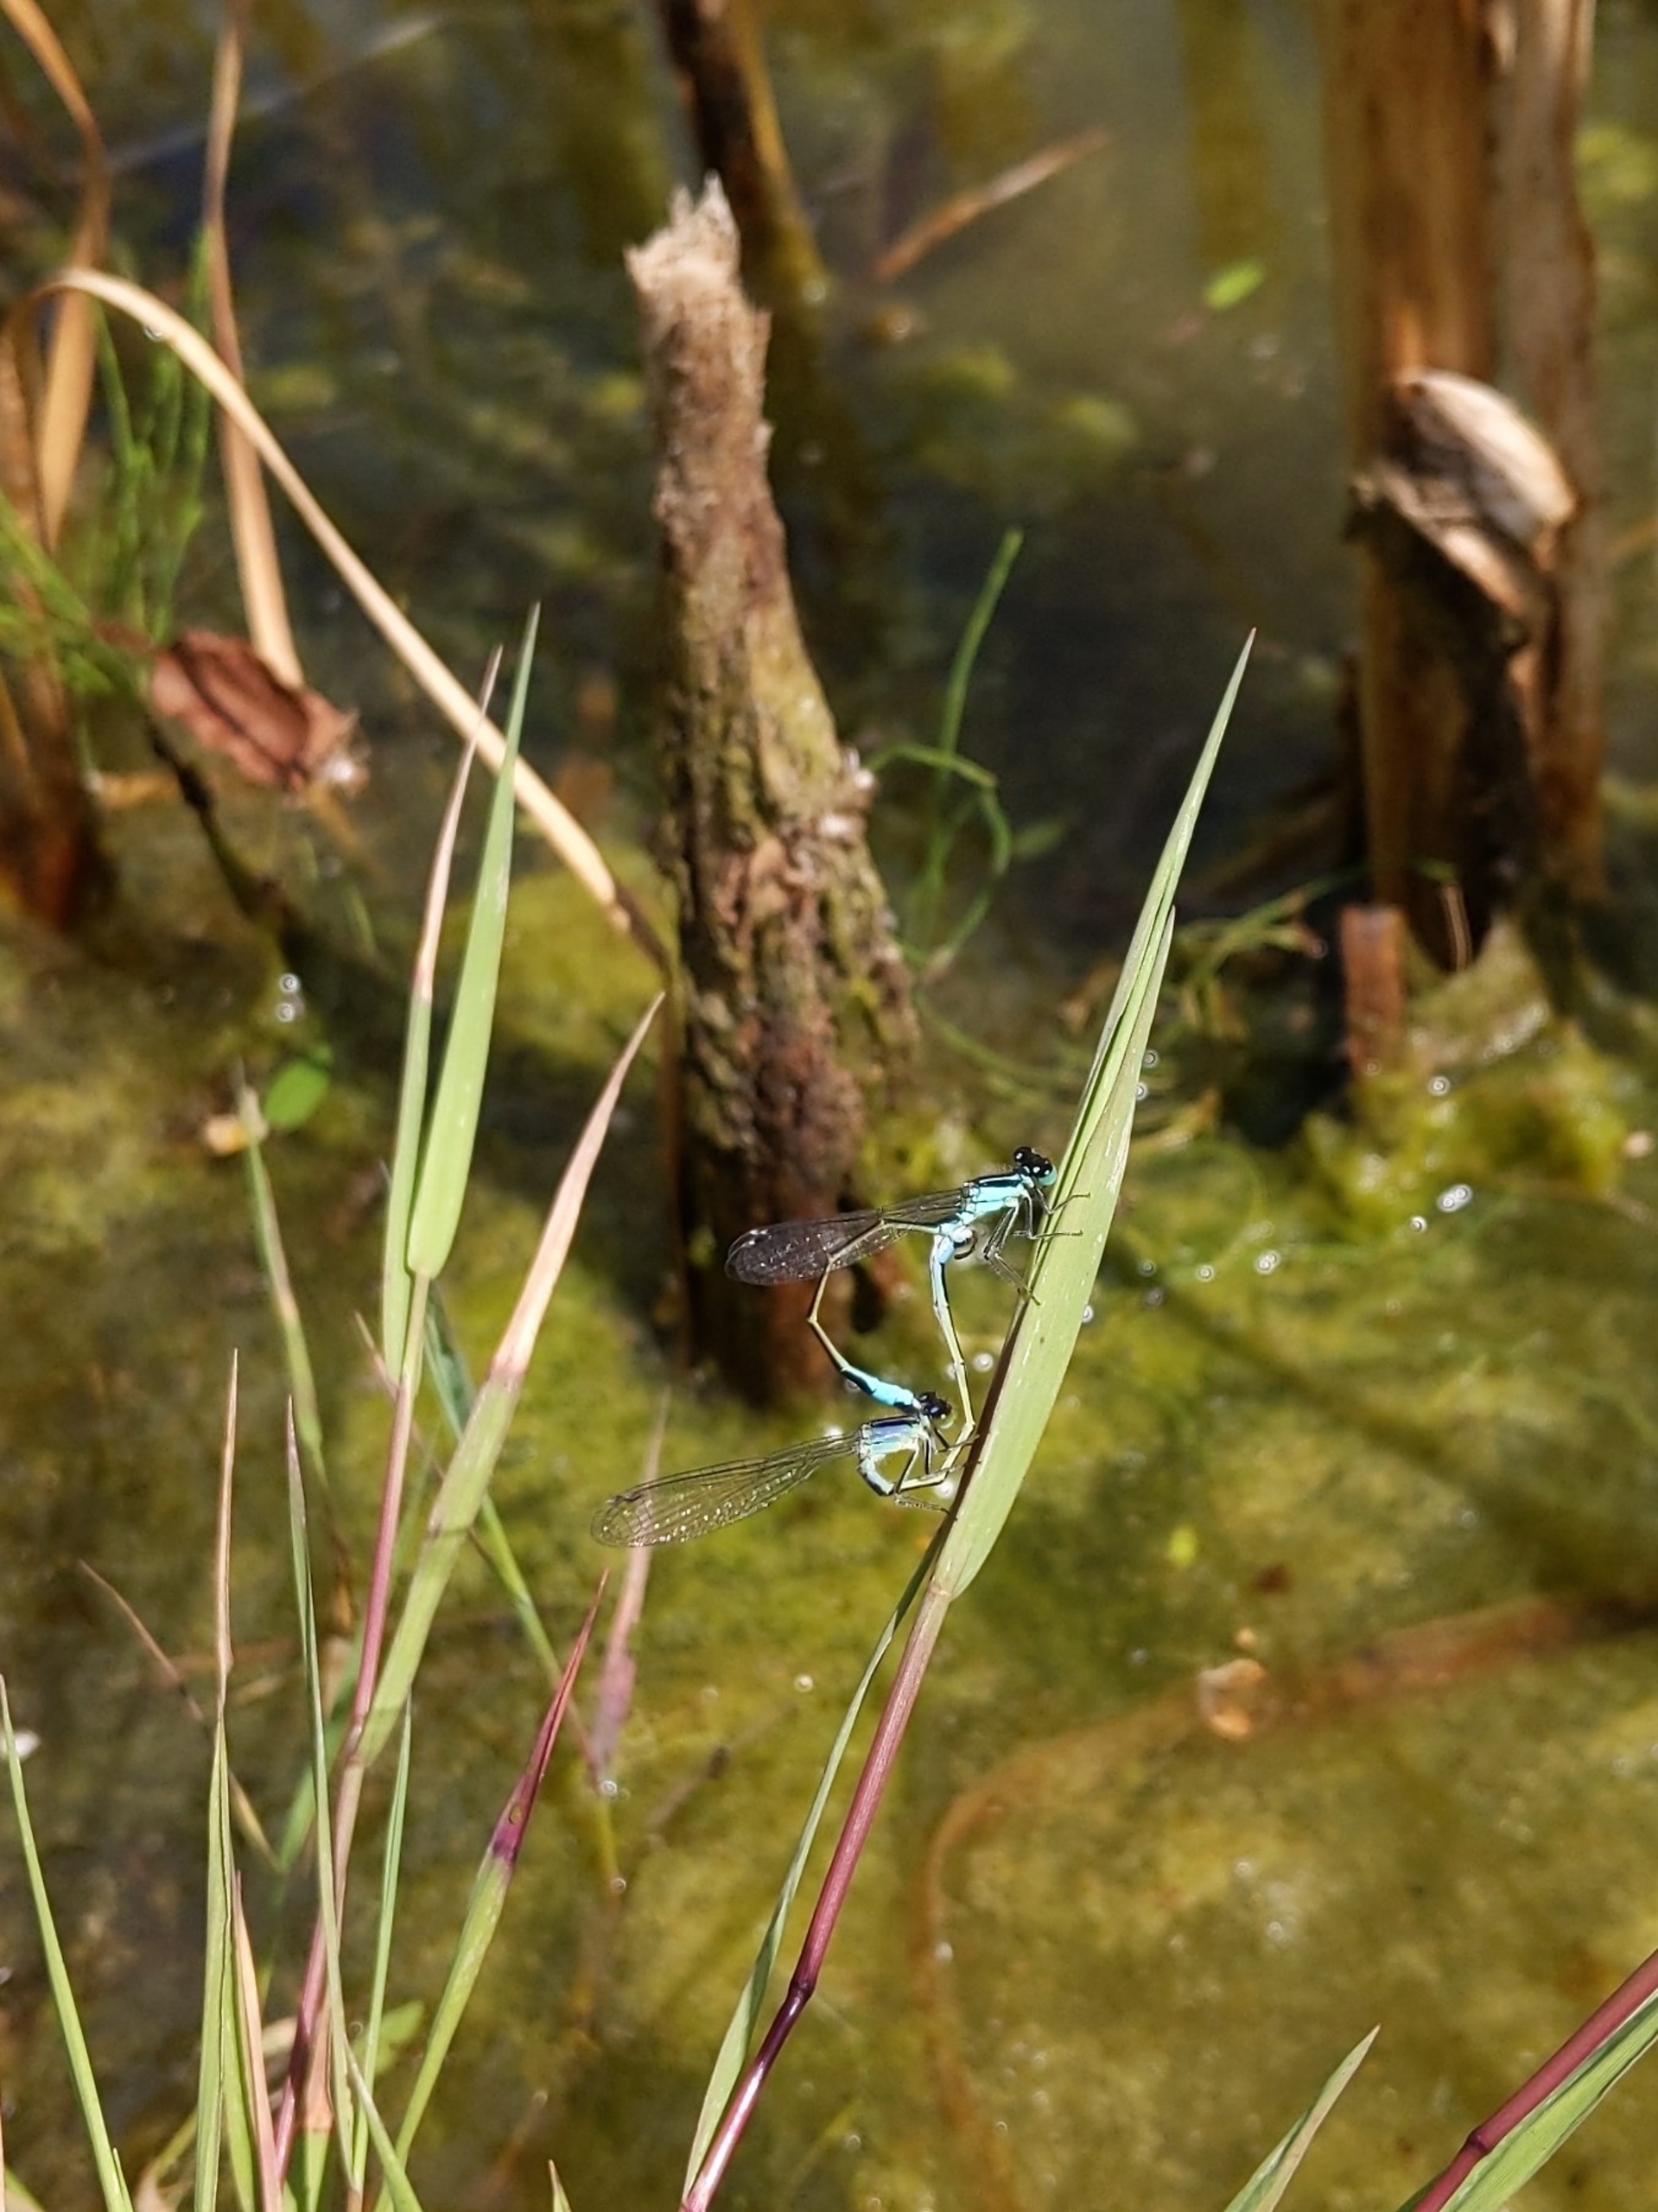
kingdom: Animalia
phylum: Arthropoda
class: Insecta
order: Odonata
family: Coenagrionidae
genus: Ischnura
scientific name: Ischnura elegans
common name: Stor farvevandnymfe
